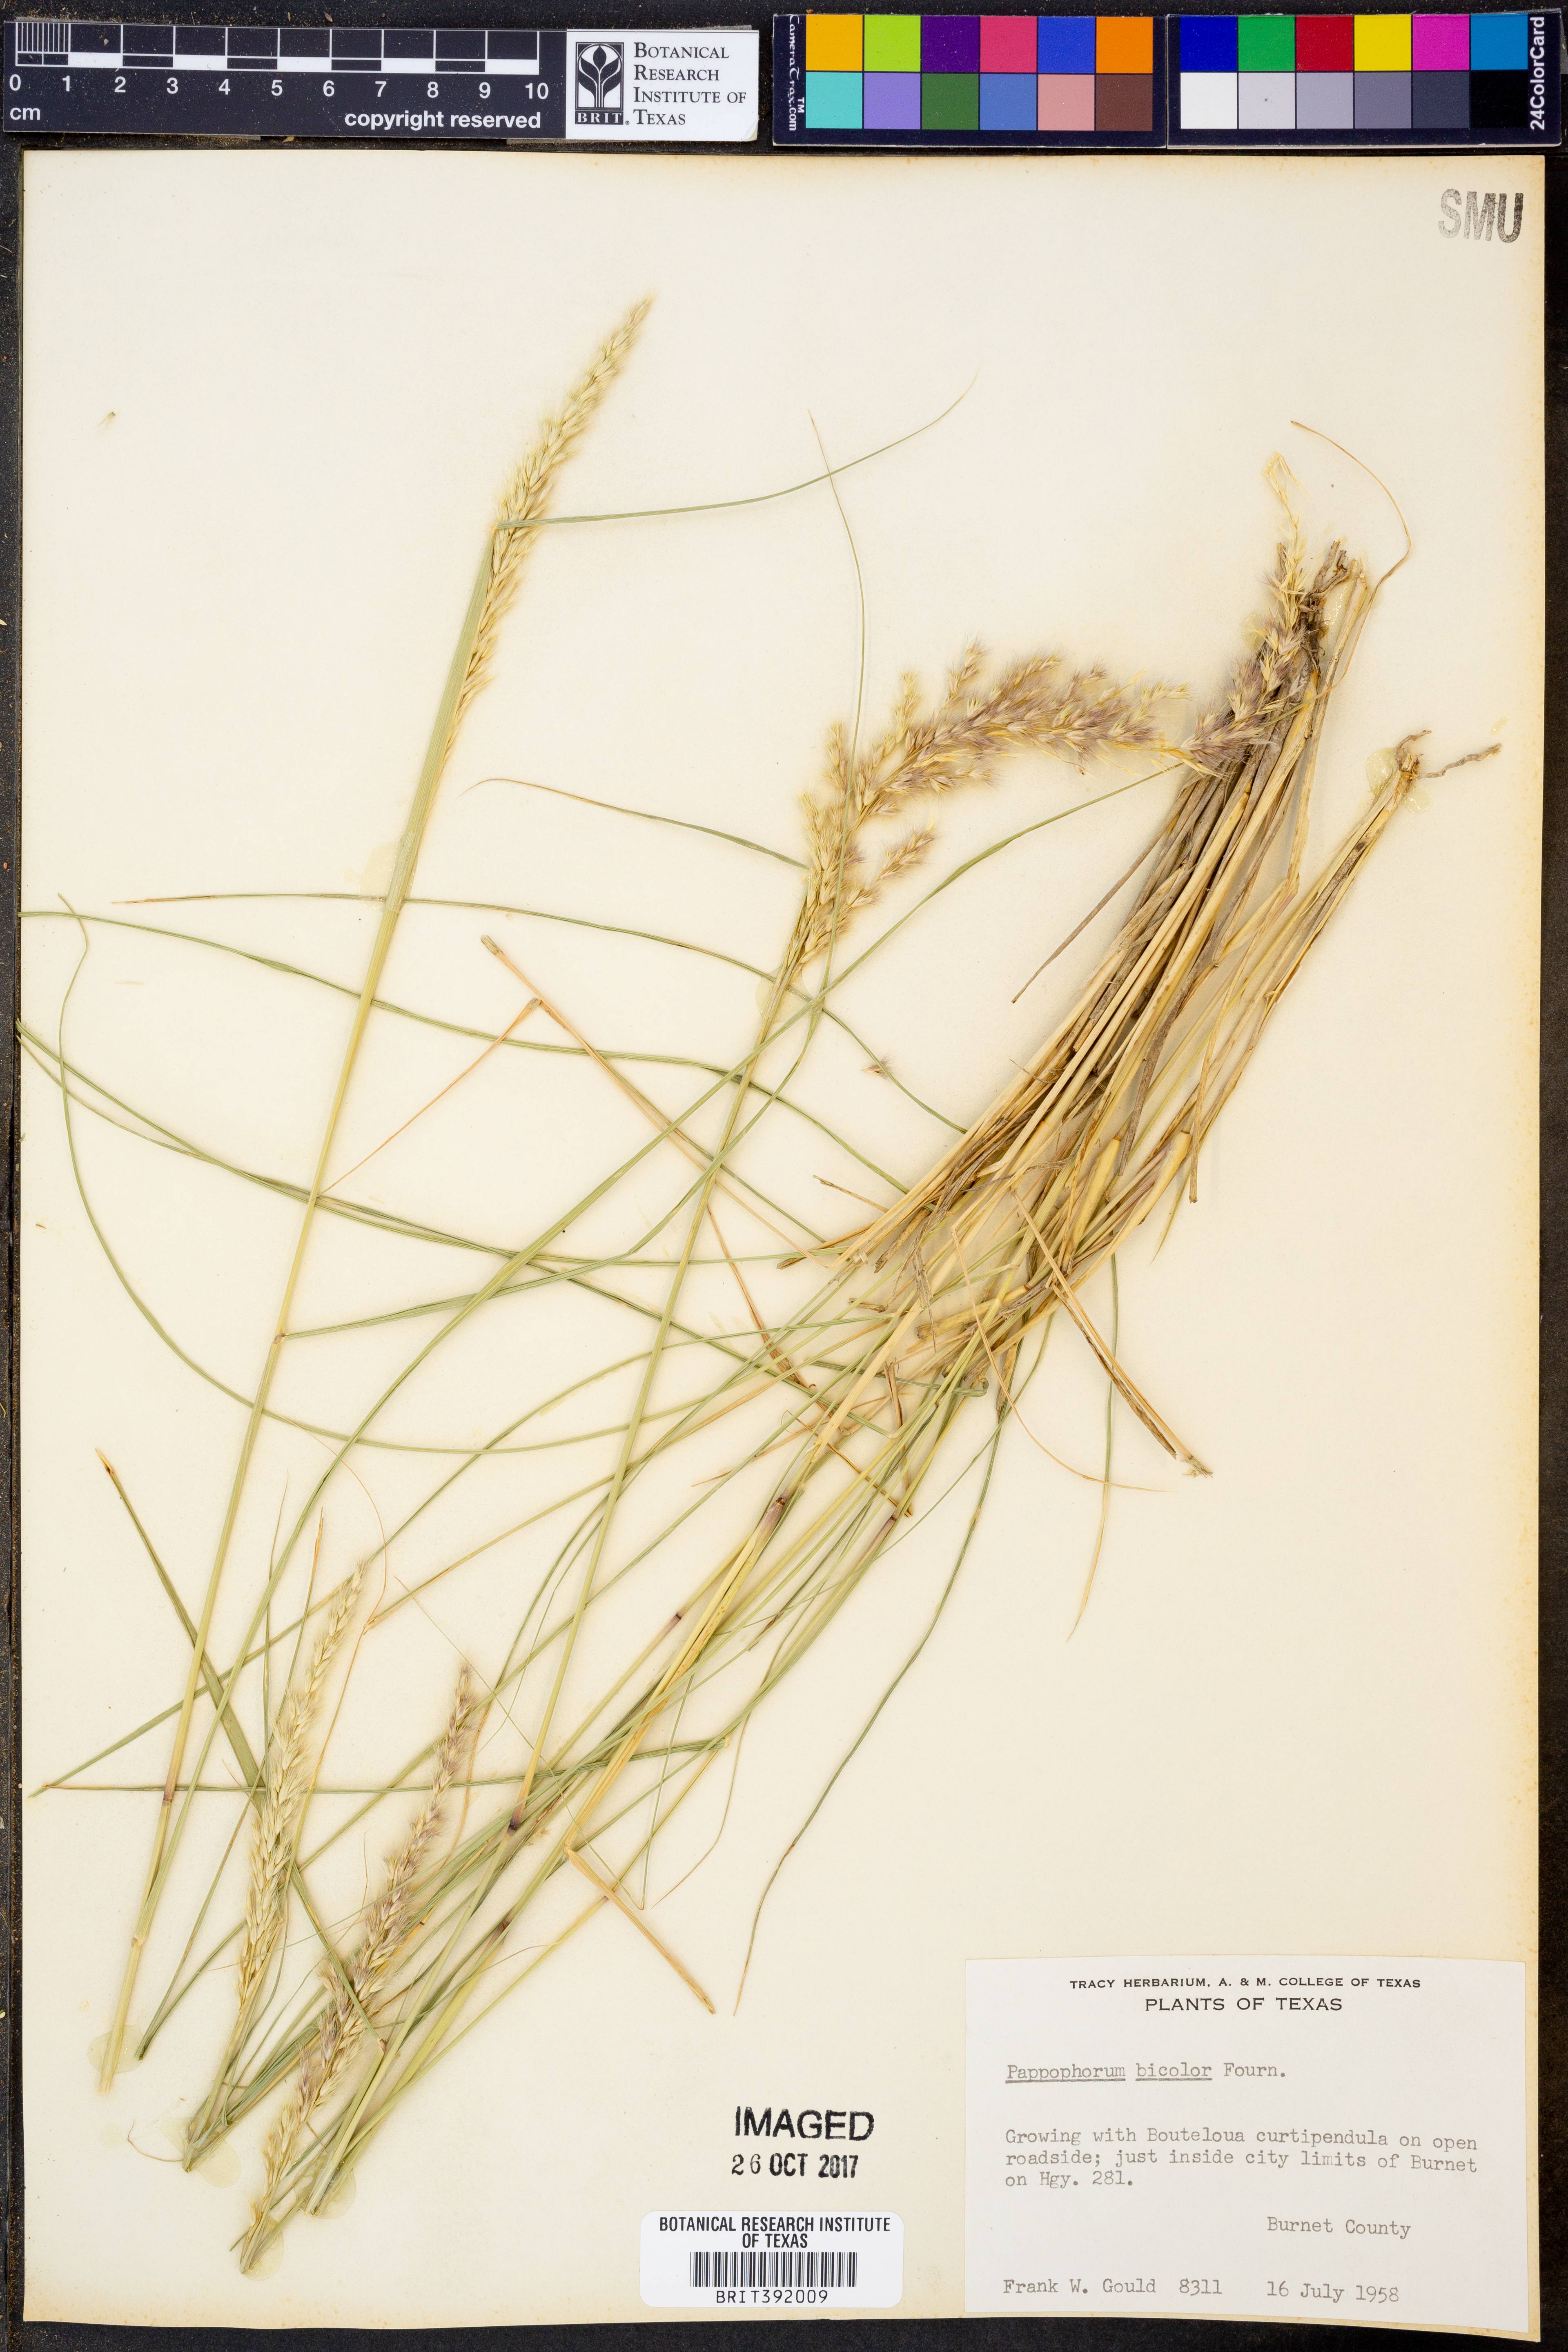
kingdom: Plantae
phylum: Tracheophyta
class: Liliopsida
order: Poales
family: Poaceae
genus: Pappophorum
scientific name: Pappophorum bicolor
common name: Pink pappus grass
